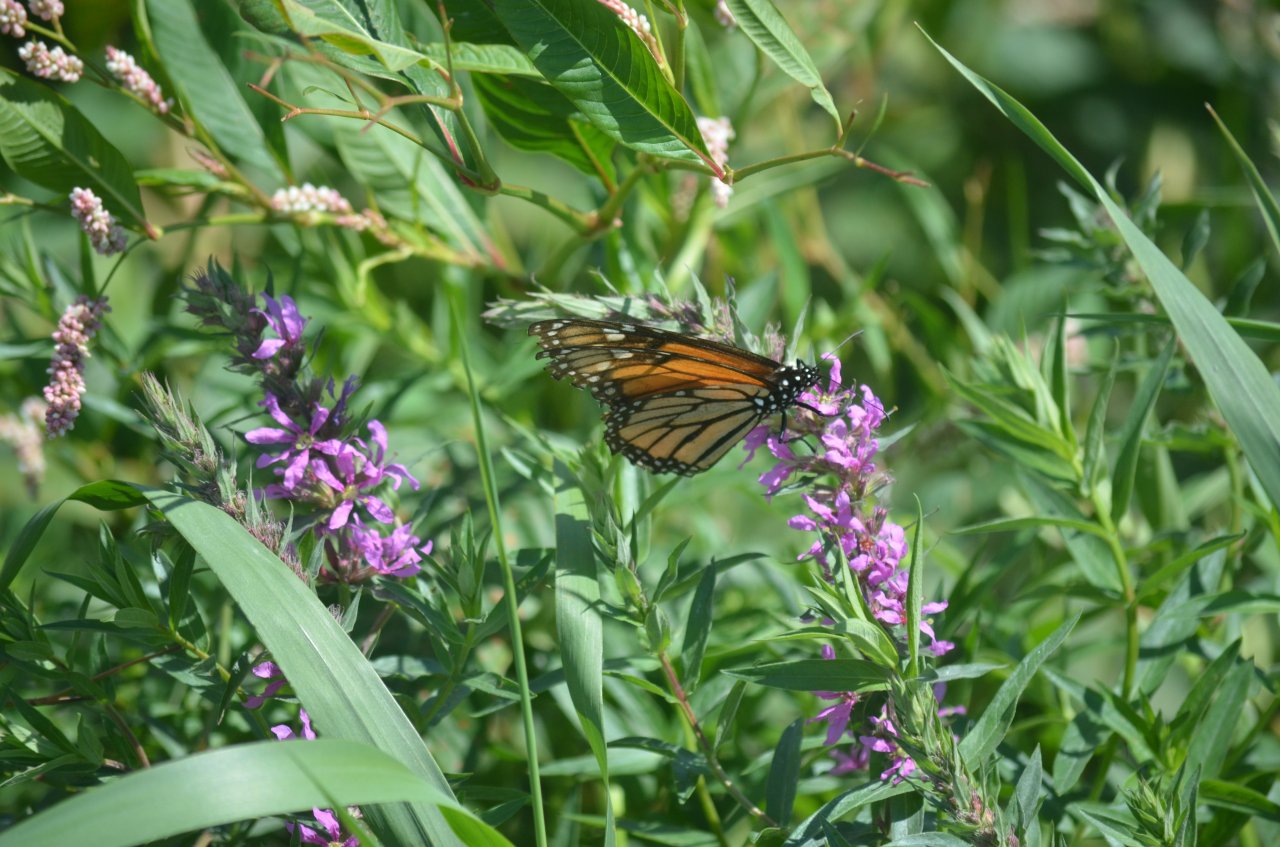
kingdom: Animalia
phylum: Arthropoda
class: Insecta
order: Lepidoptera
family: Nymphalidae
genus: Danaus
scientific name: Danaus plexippus
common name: Monarch
